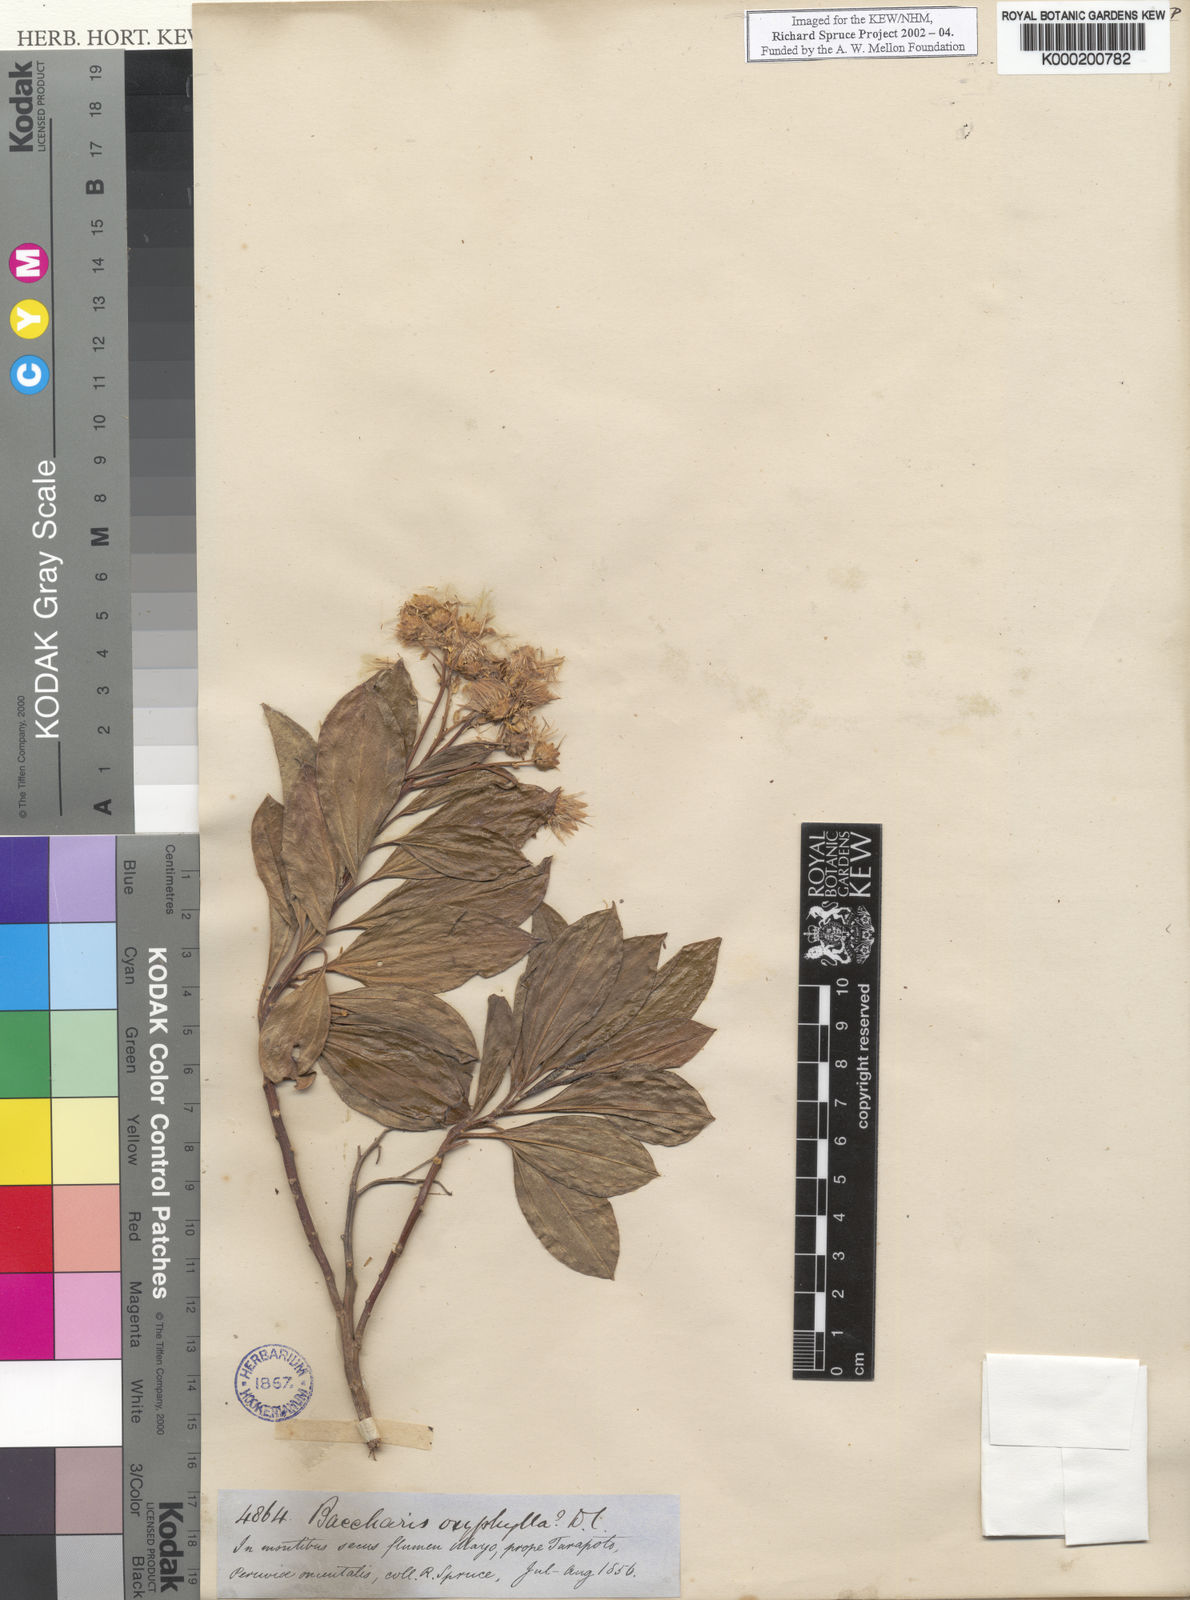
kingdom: Plantae
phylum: Tracheophyta
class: Magnoliopsida
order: Asterales
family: Asteraceae
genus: Baccharis
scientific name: Baccharis pedunculata
